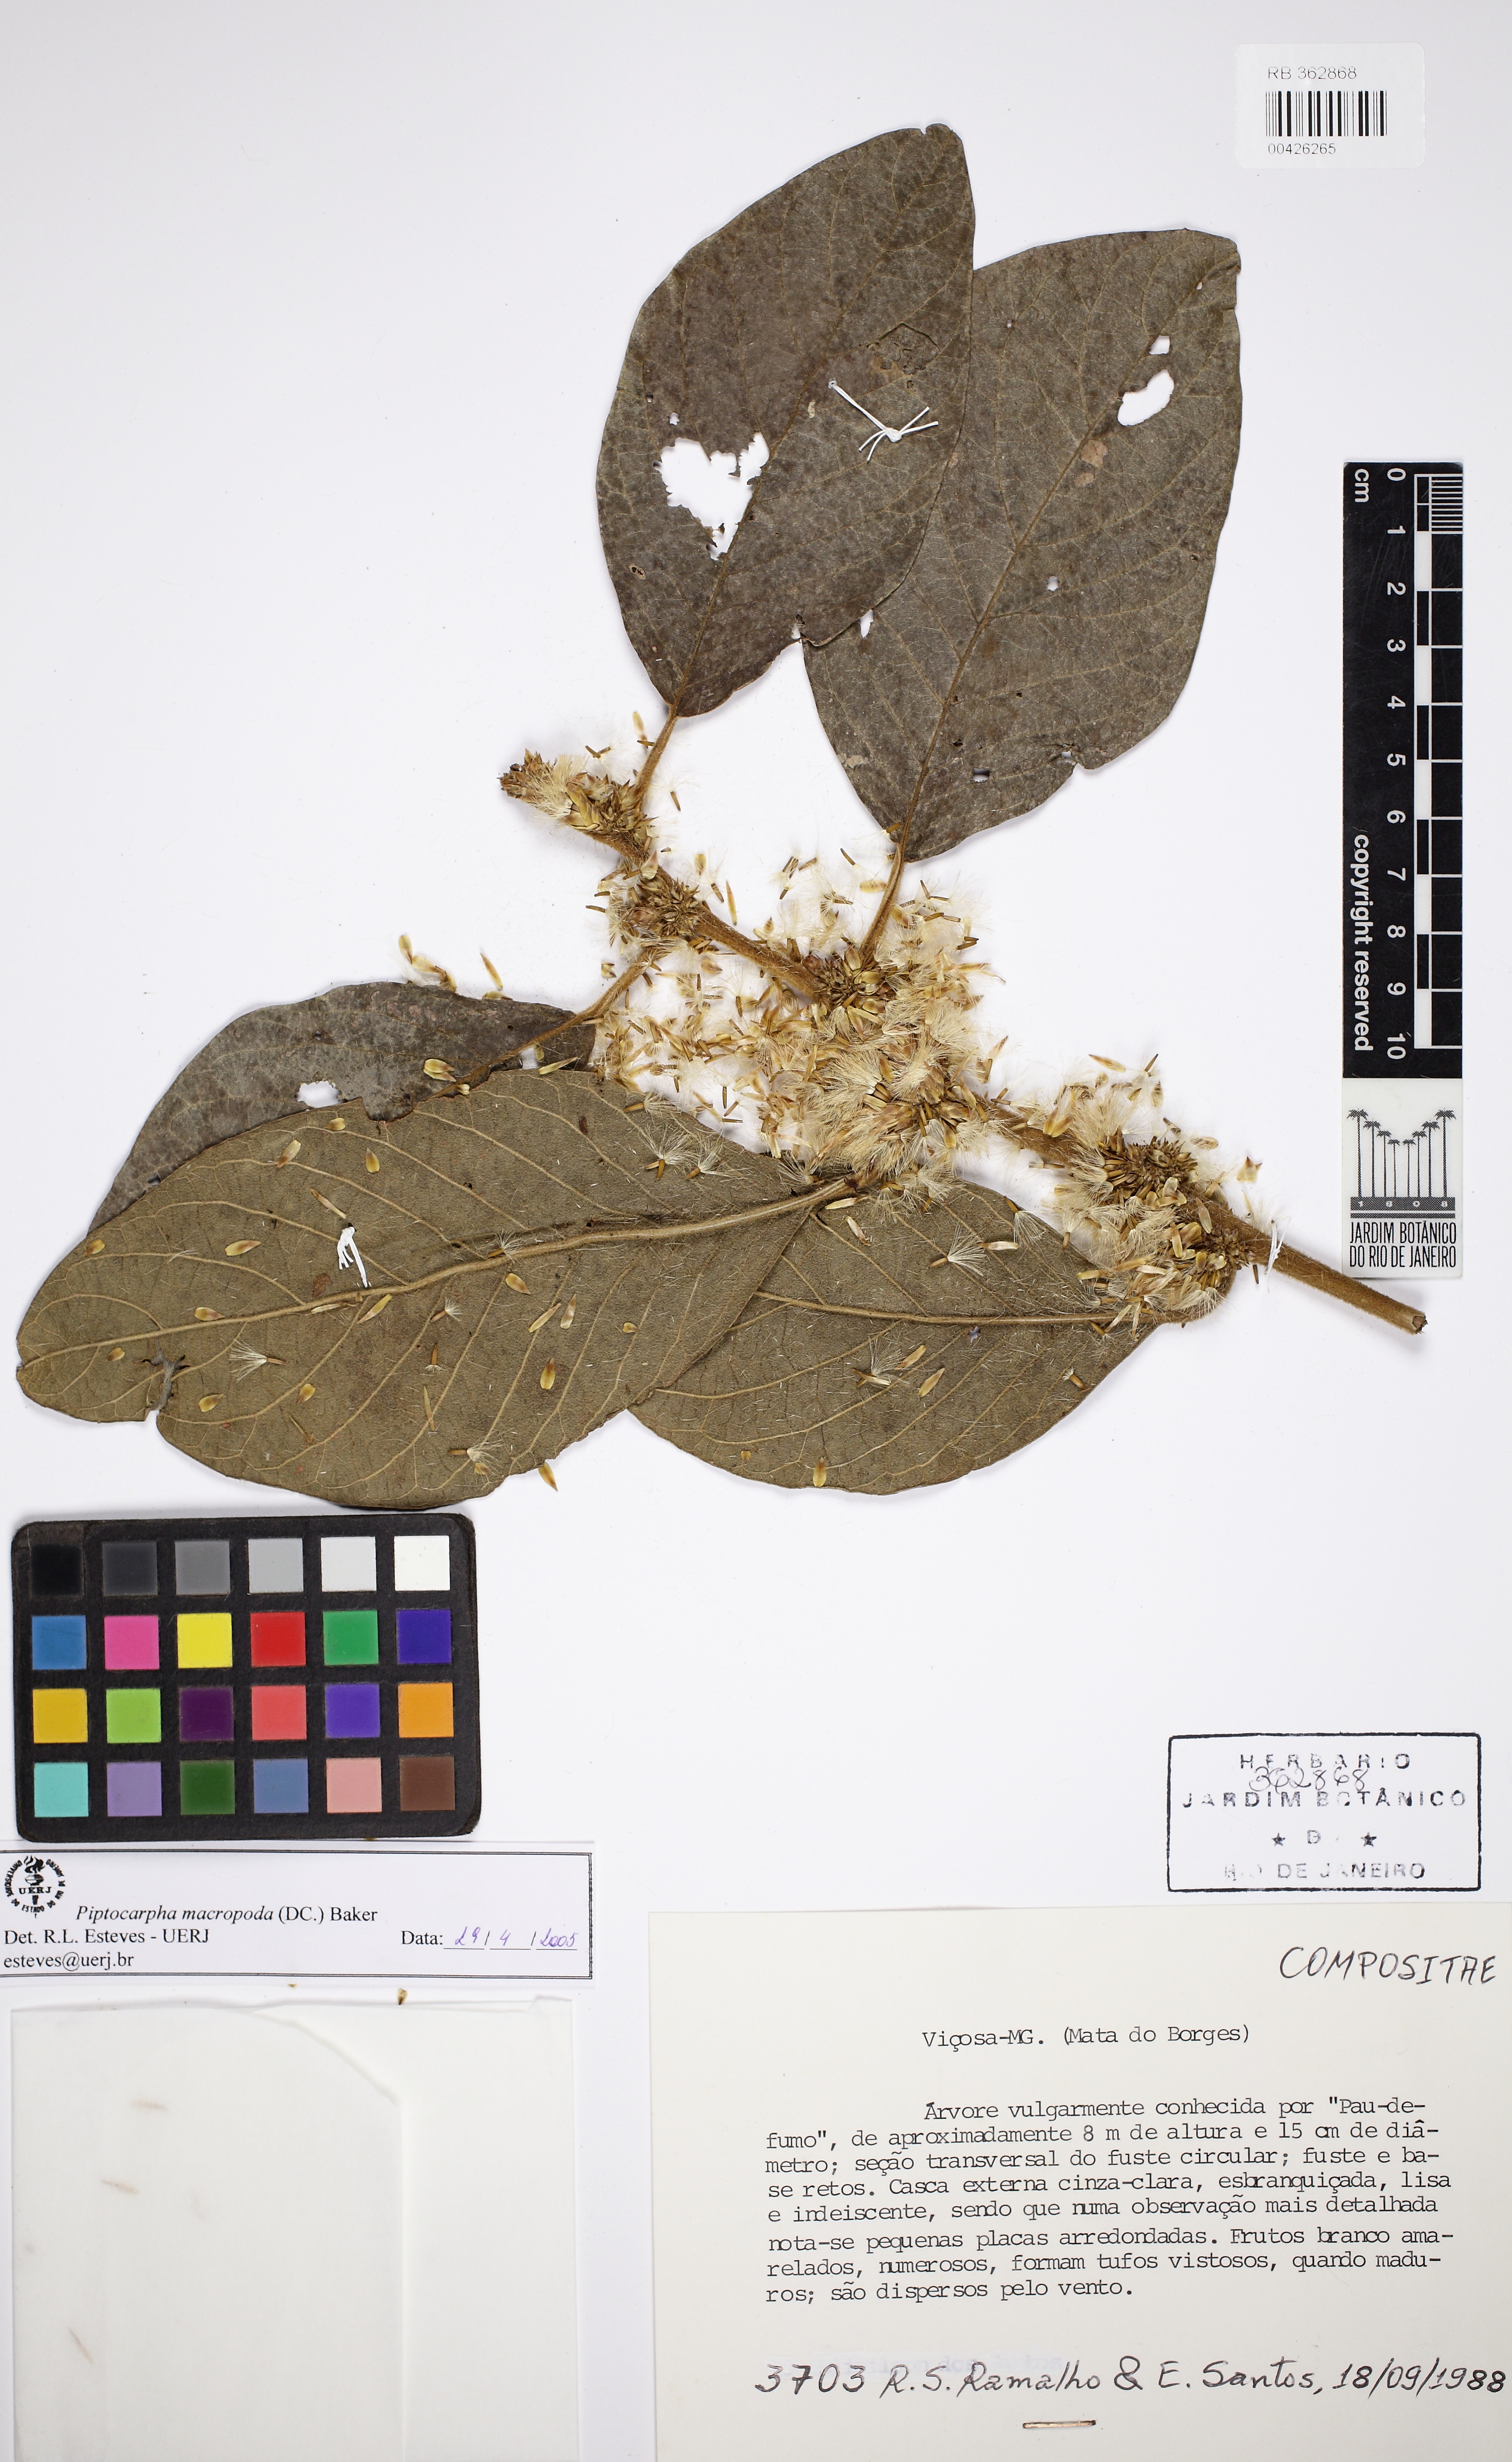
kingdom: Plantae
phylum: Tracheophyta
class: Magnoliopsida
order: Asterales
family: Asteraceae
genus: Piptocarpha
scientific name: Piptocarpha macropoda
